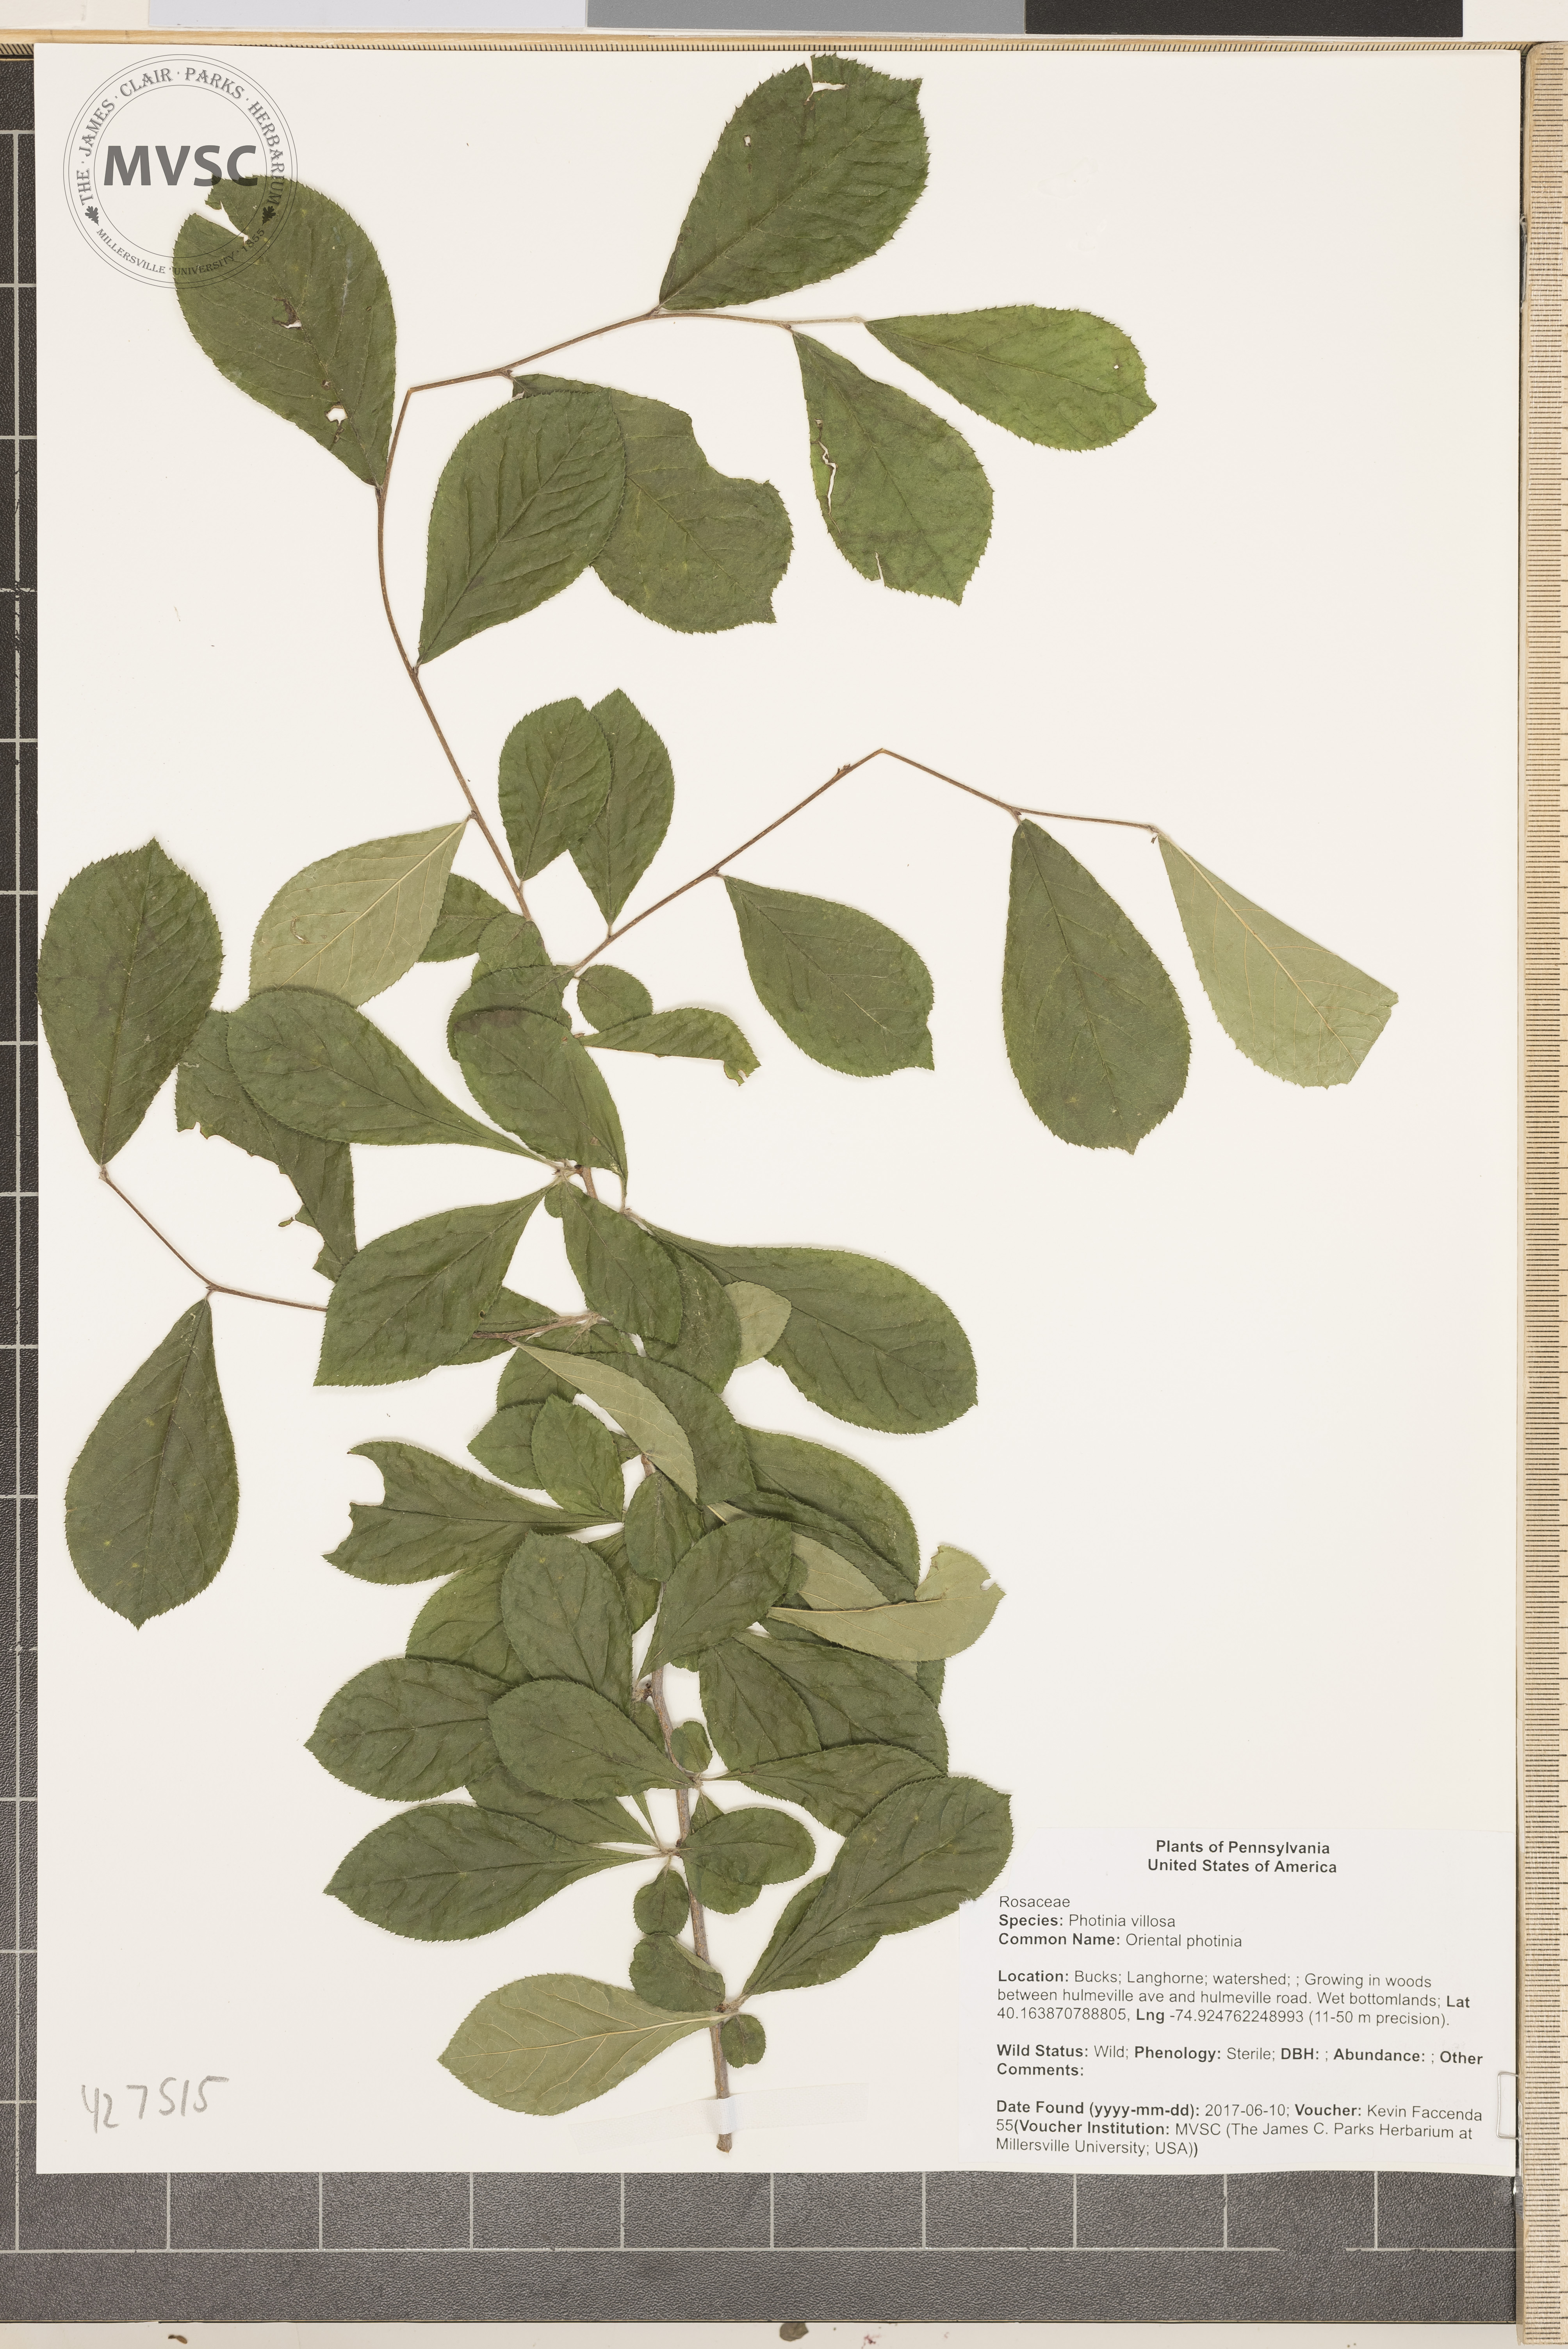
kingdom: Plantae
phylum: Tracheophyta
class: Magnoliopsida
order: Rosales
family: Rosaceae
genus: Pourthiaea
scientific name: Pourthiaea villosa
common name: Oriental photinia
